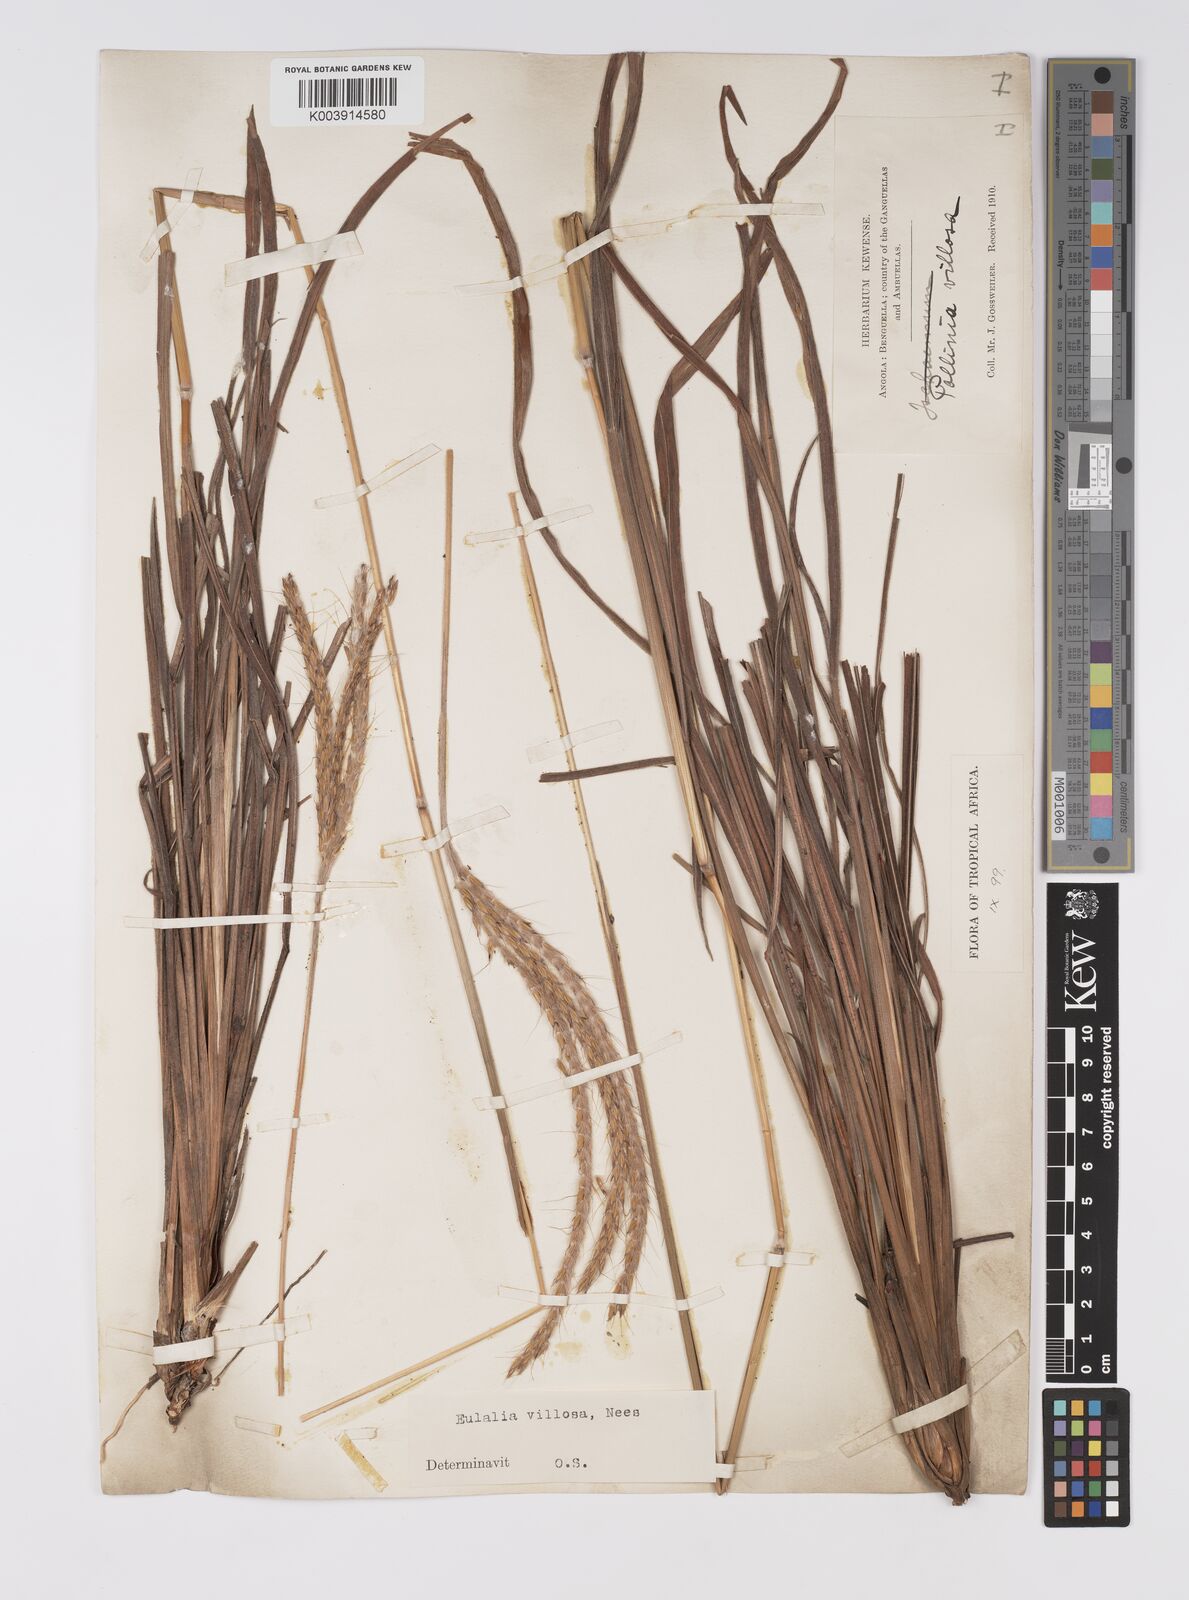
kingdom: Plantae
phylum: Tracheophyta
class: Liliopsida
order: Poales
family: Poaceae
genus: Eulalia
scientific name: Eulalia villosa
